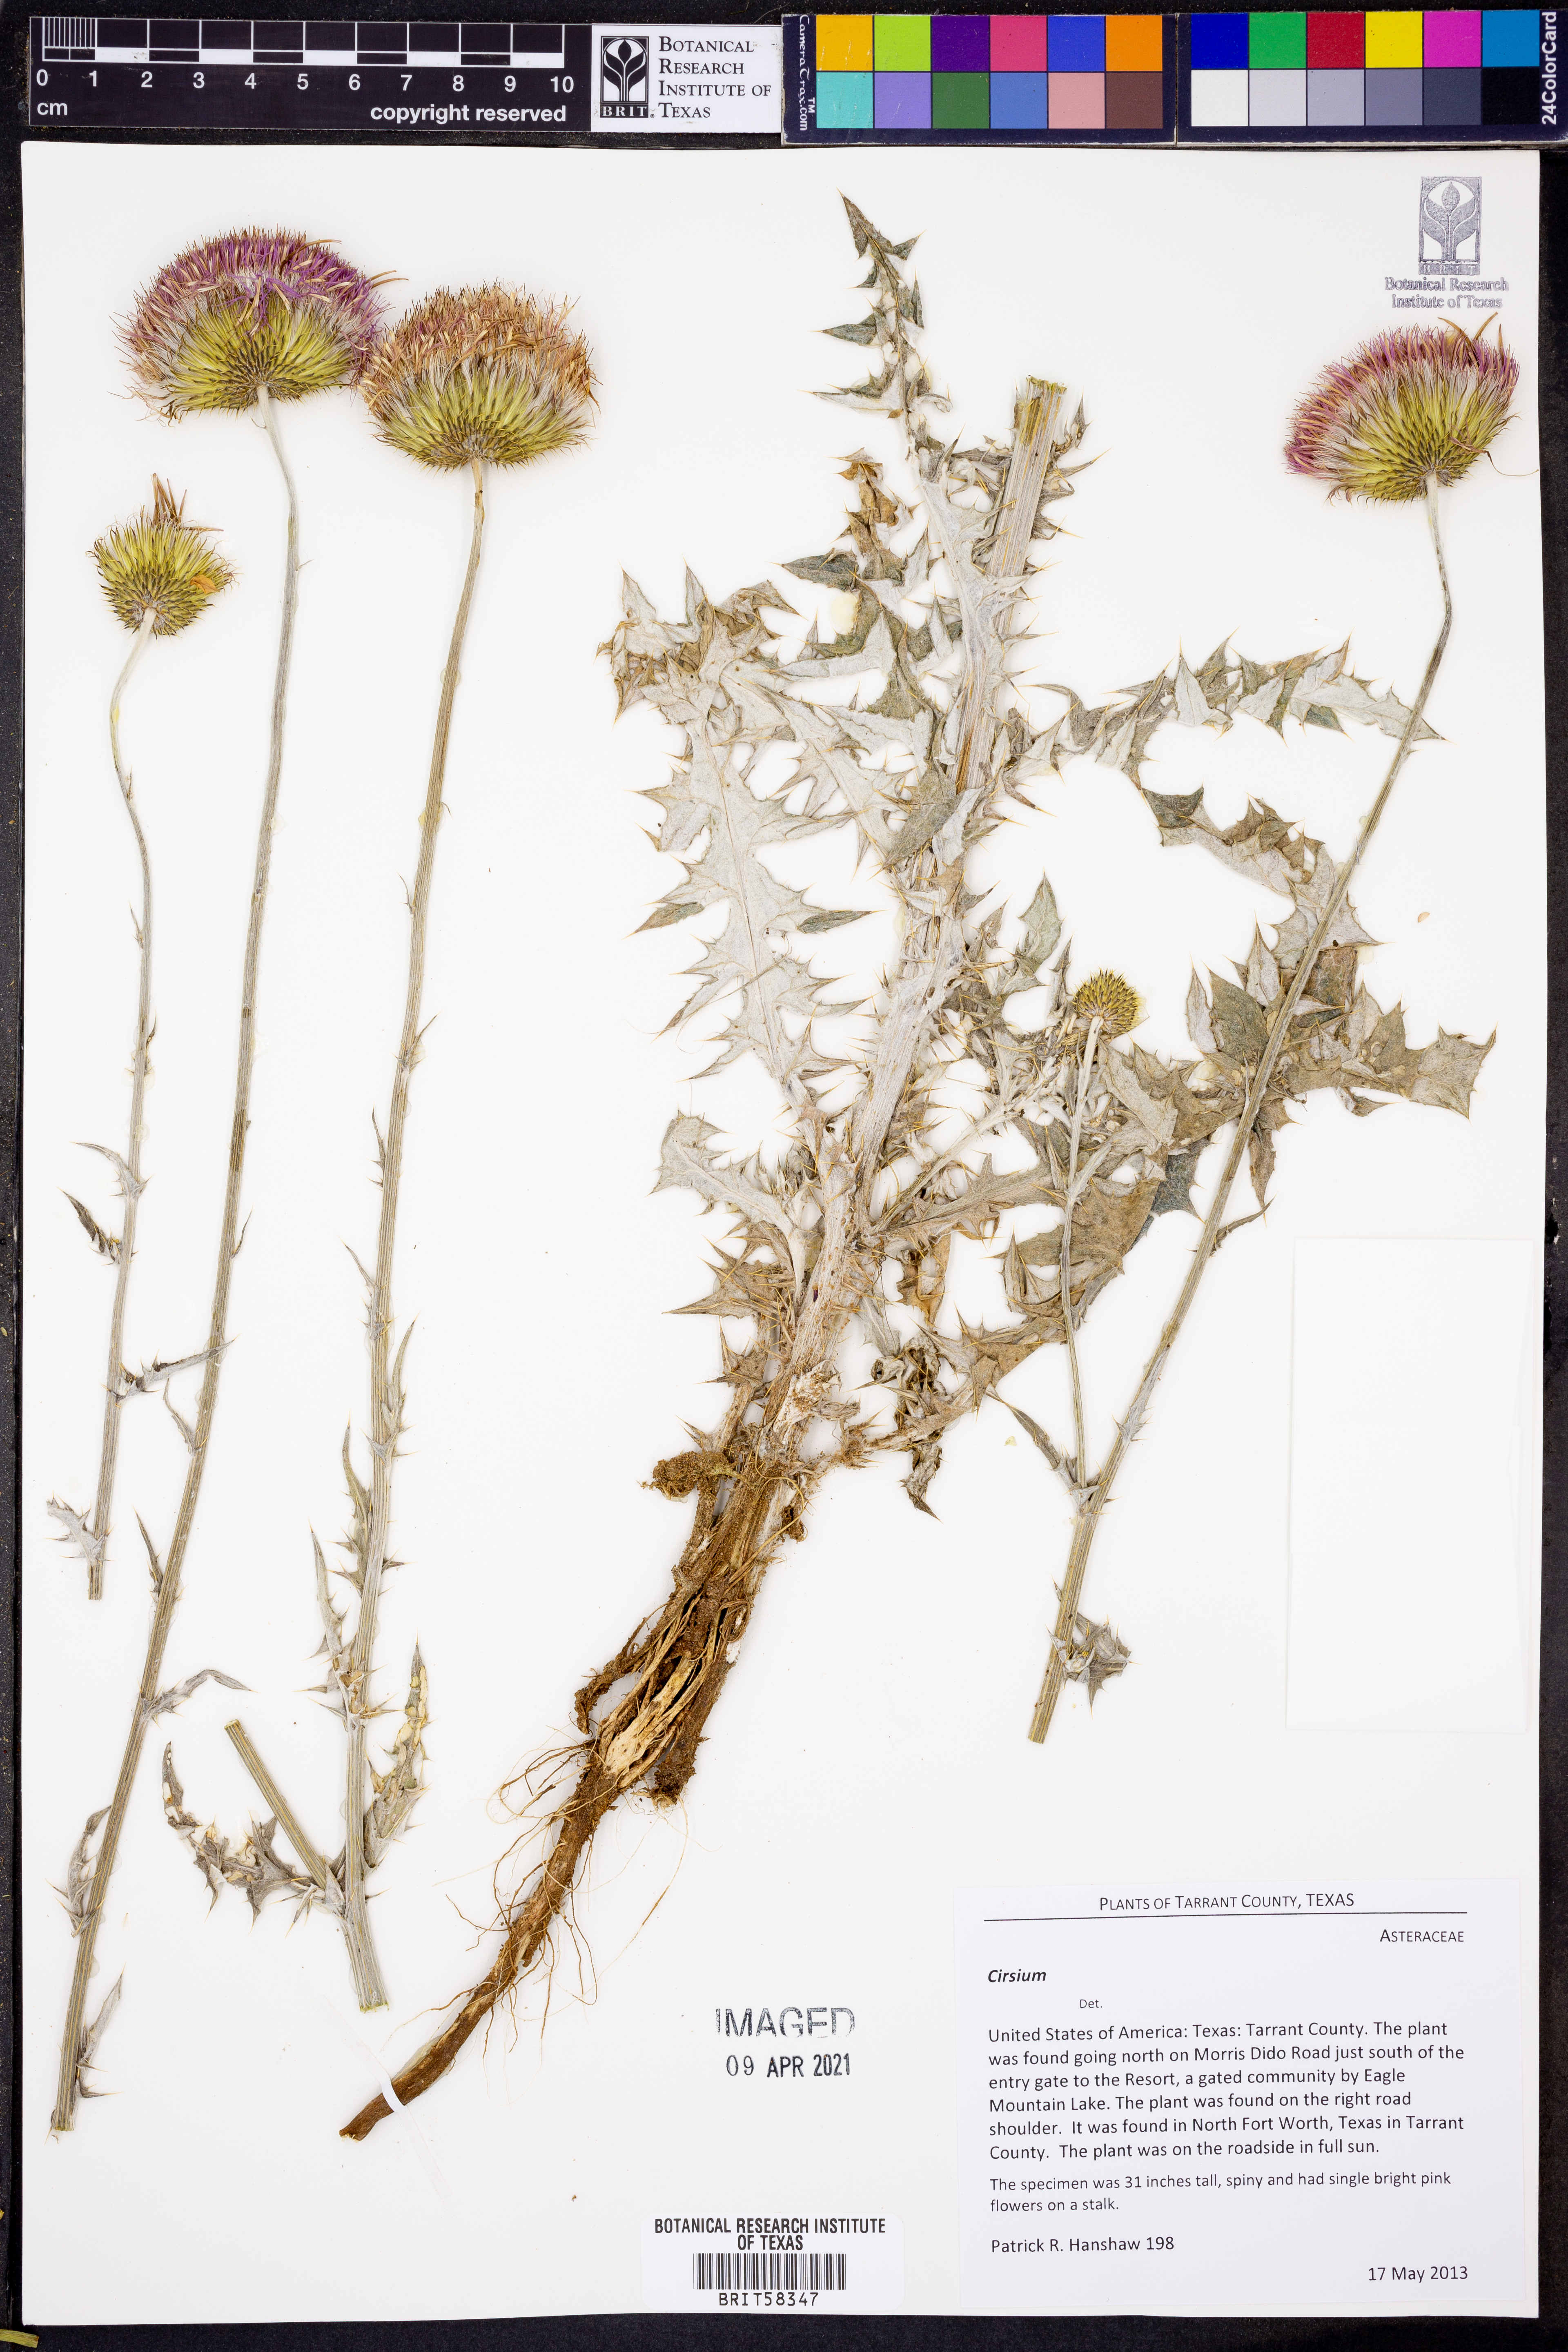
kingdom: Plantae
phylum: Tracheophyta
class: Magnoliopsida
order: Asterales
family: Asteraceae
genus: Cirsium
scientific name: Cirsium
